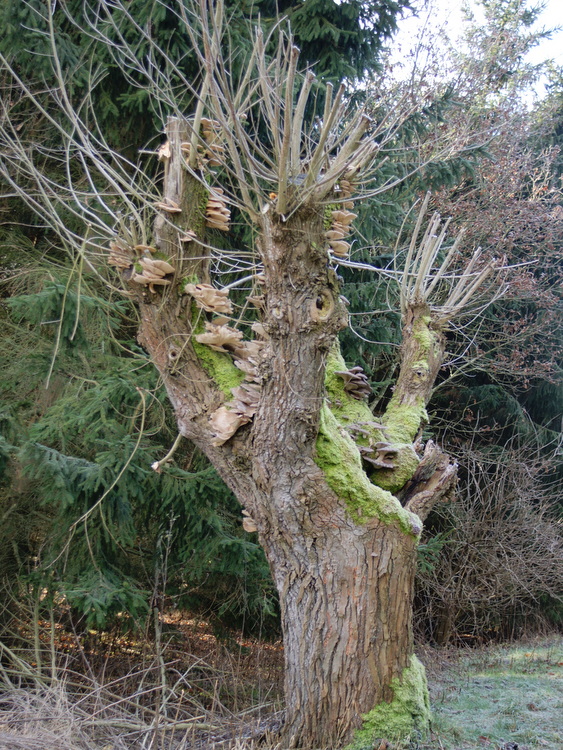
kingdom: Fungi
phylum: Basidiomycota
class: Agaricomycetes
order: Agaricales
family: Pleurotaceae
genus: Pleurotus
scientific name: Pleurotus ostreatus
